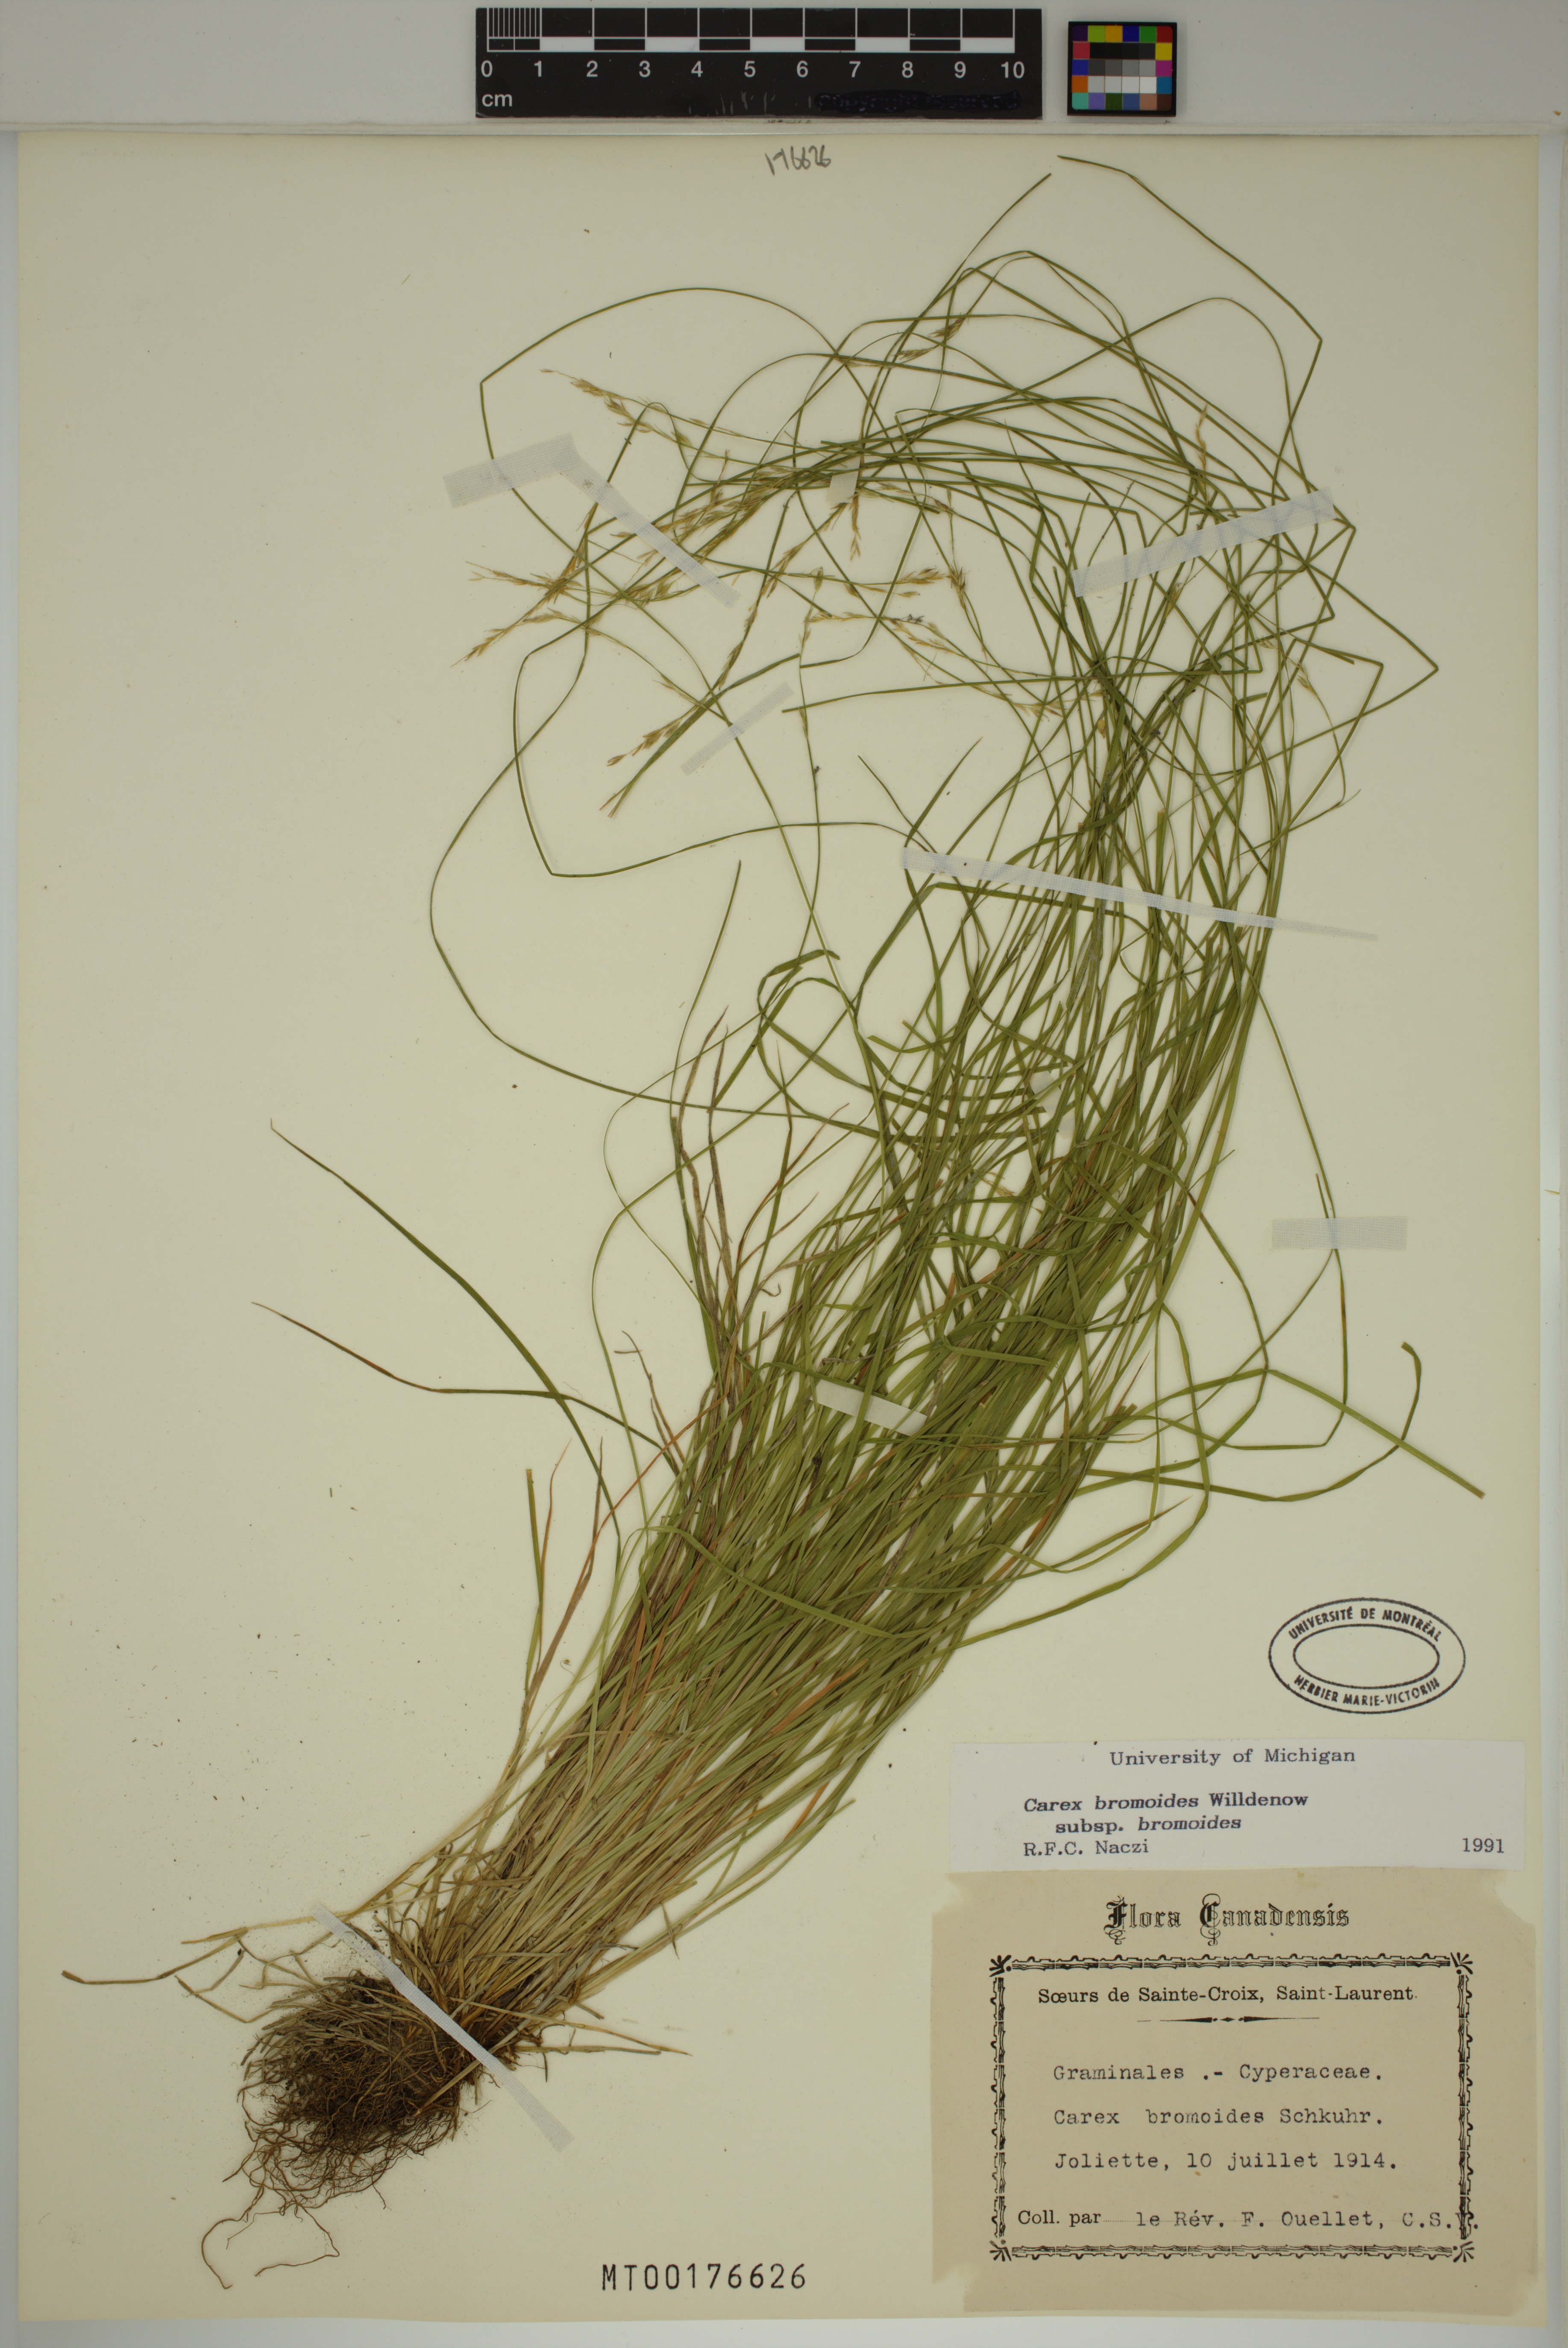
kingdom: Plantae
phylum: Tracheophyta
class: Liliopsida
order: Poales
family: Cyperaceae
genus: Carex
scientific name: Carex bromoides
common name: Brome hummock sedge
